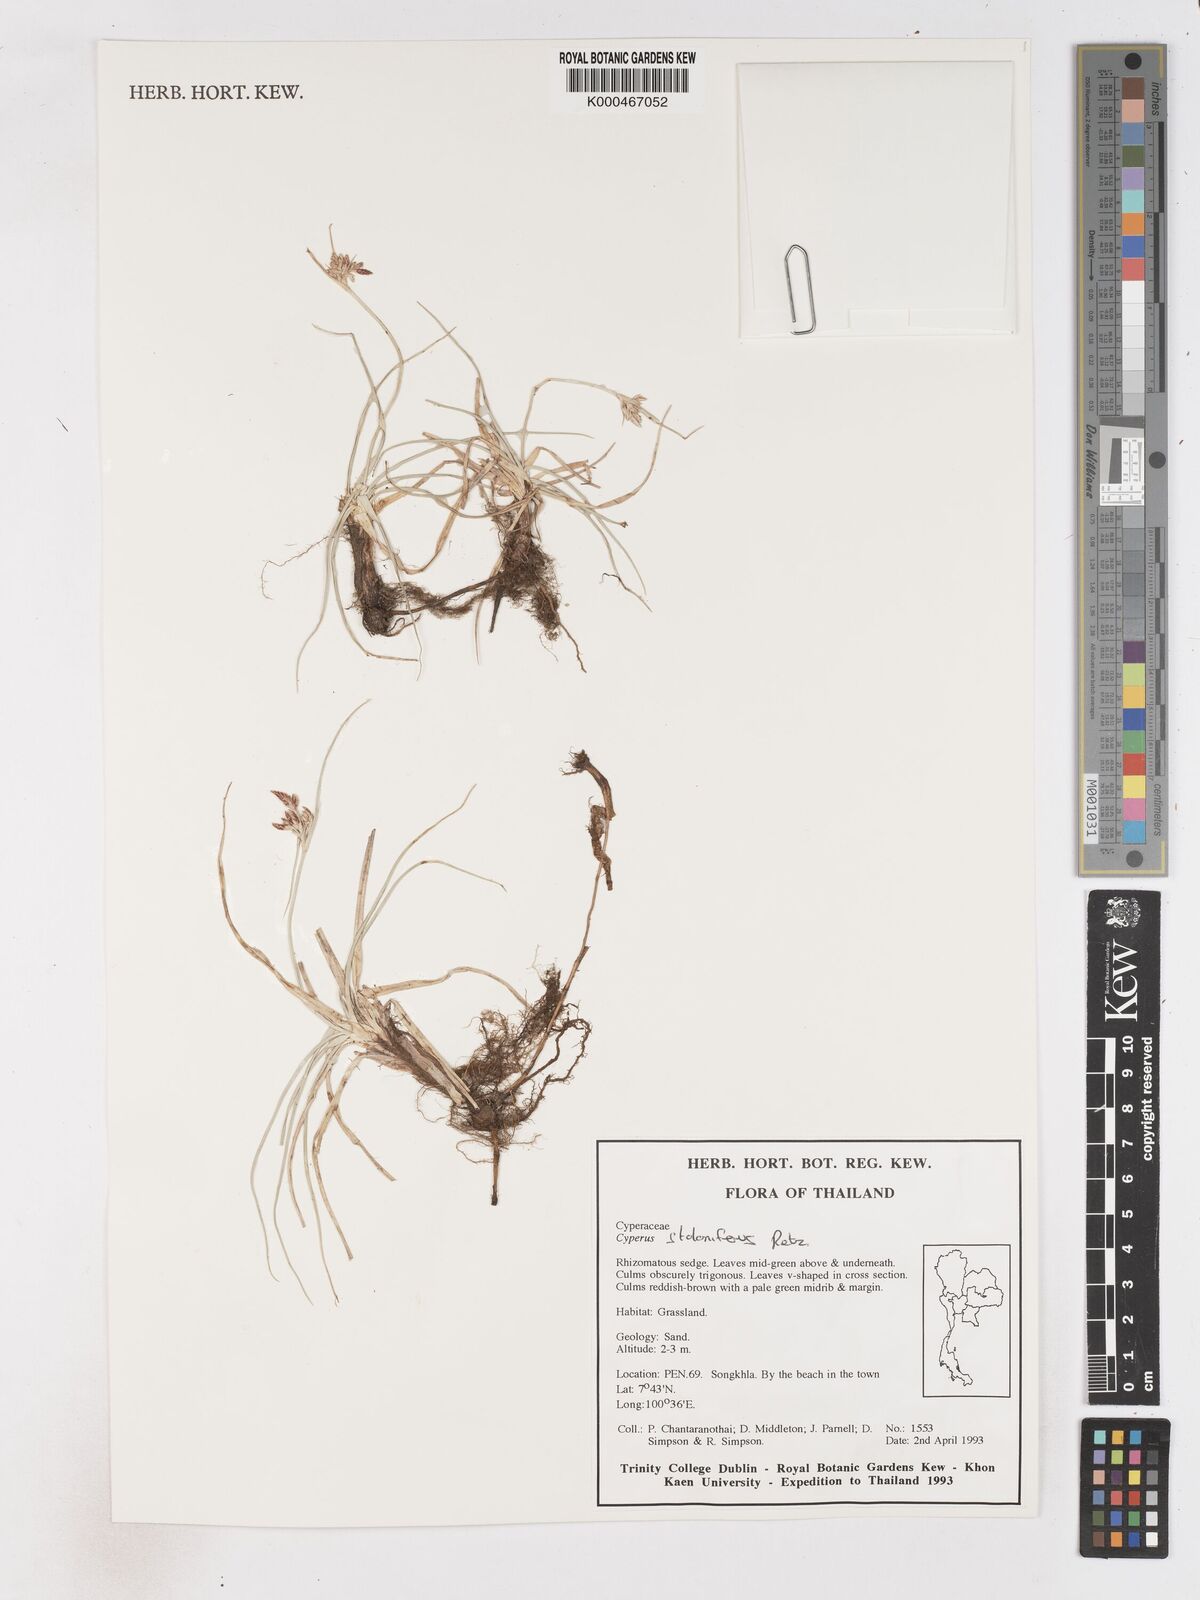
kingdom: Plantae
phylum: Tracheophyta
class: Liliopsida
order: Poales
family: Cyperaceae
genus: Cyperus
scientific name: Cyperus
